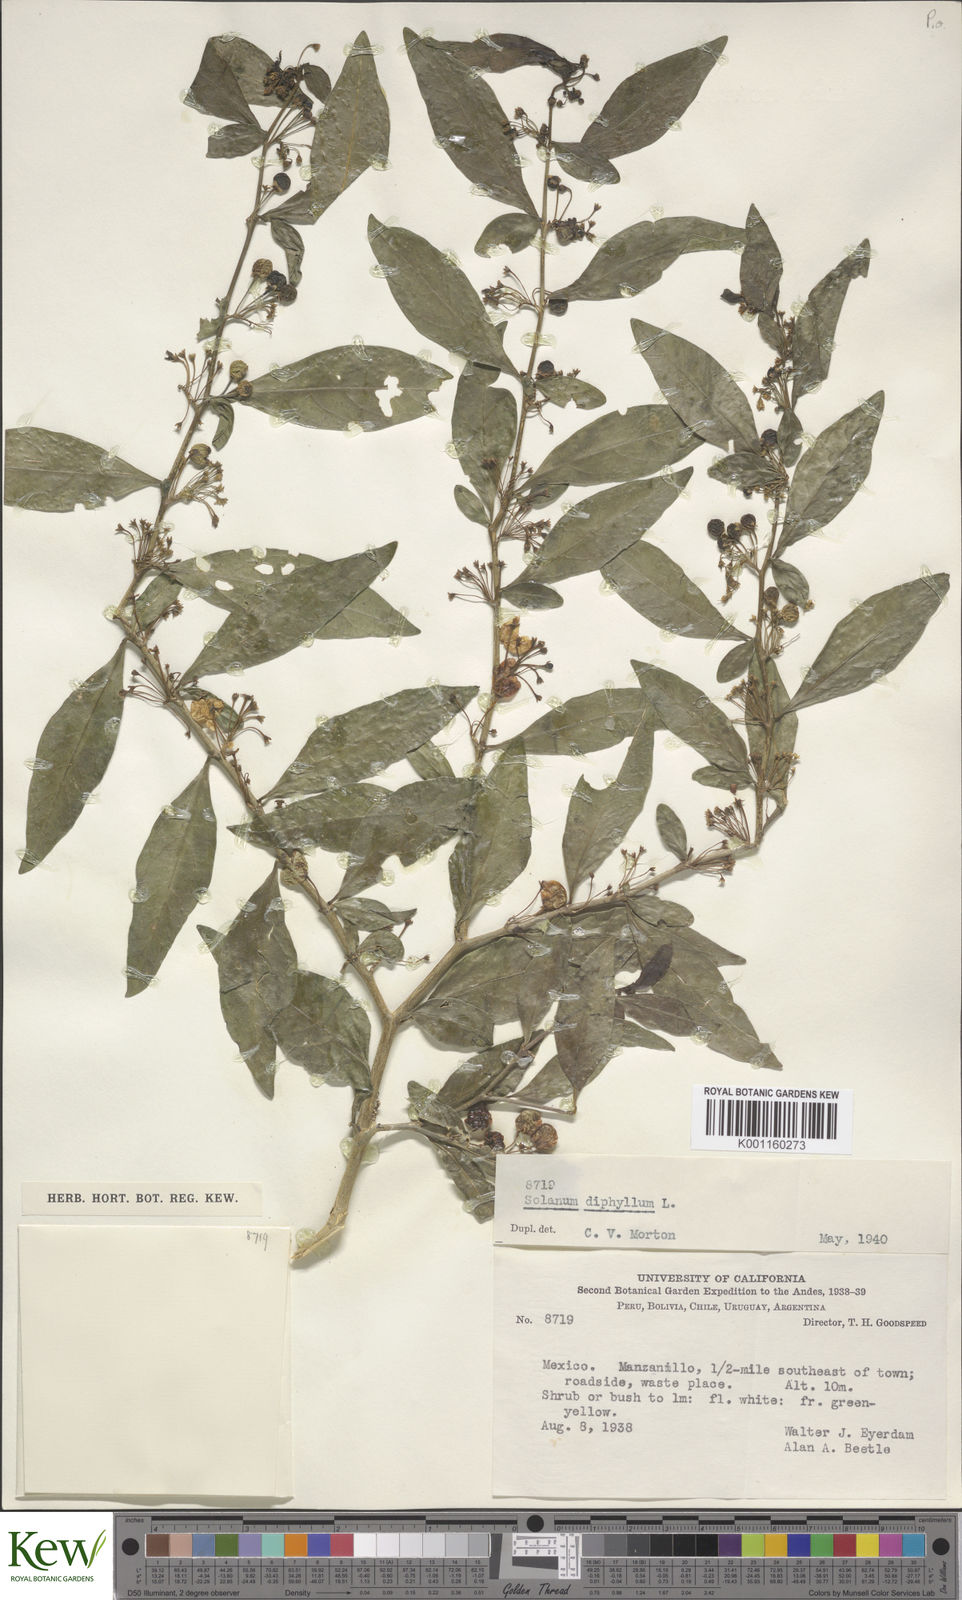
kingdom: Plantae
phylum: Tracheophyta
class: Magnoliopsida
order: Solanales
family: Solanaceae
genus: Solanum
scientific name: Solanum diphyllum
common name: Twoleaf nightshade
